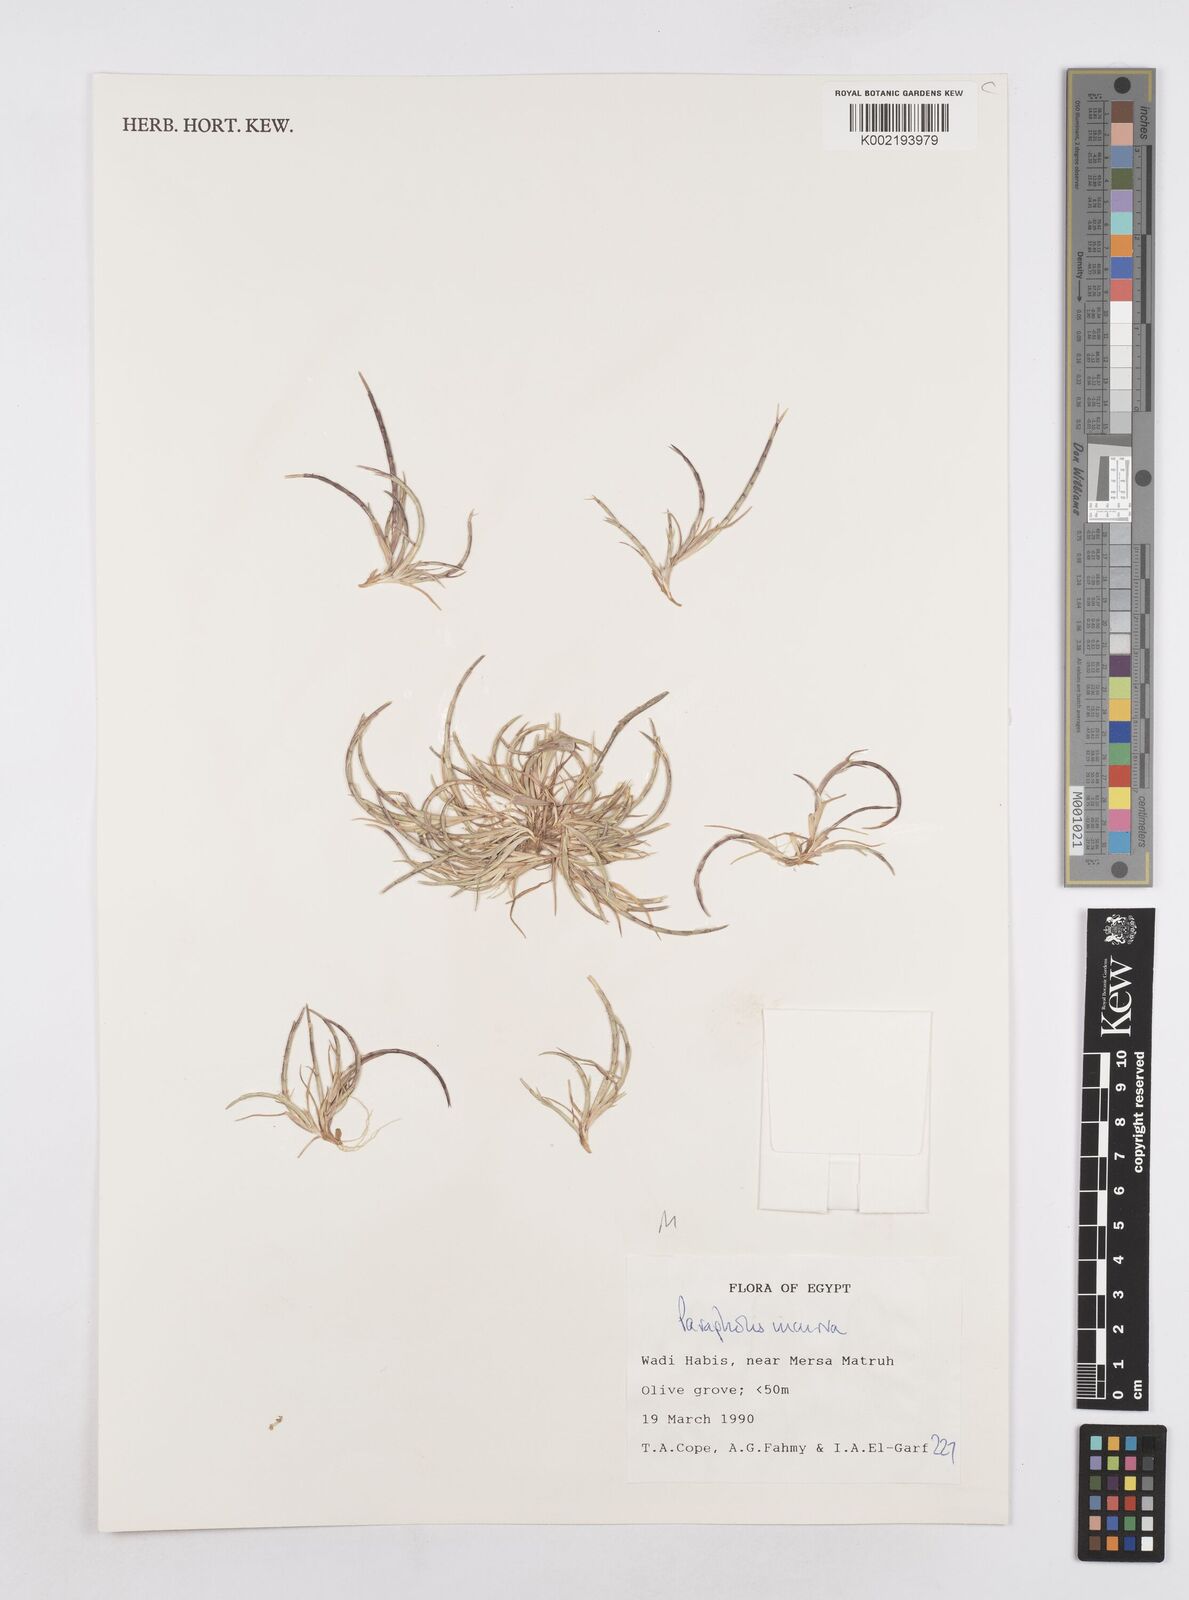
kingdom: Plantae
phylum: Tracheophyta
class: Liliopsida
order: Poales
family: Poaceae
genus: Parapholis
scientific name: Parapholis incurva
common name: Curved sicklegrass
